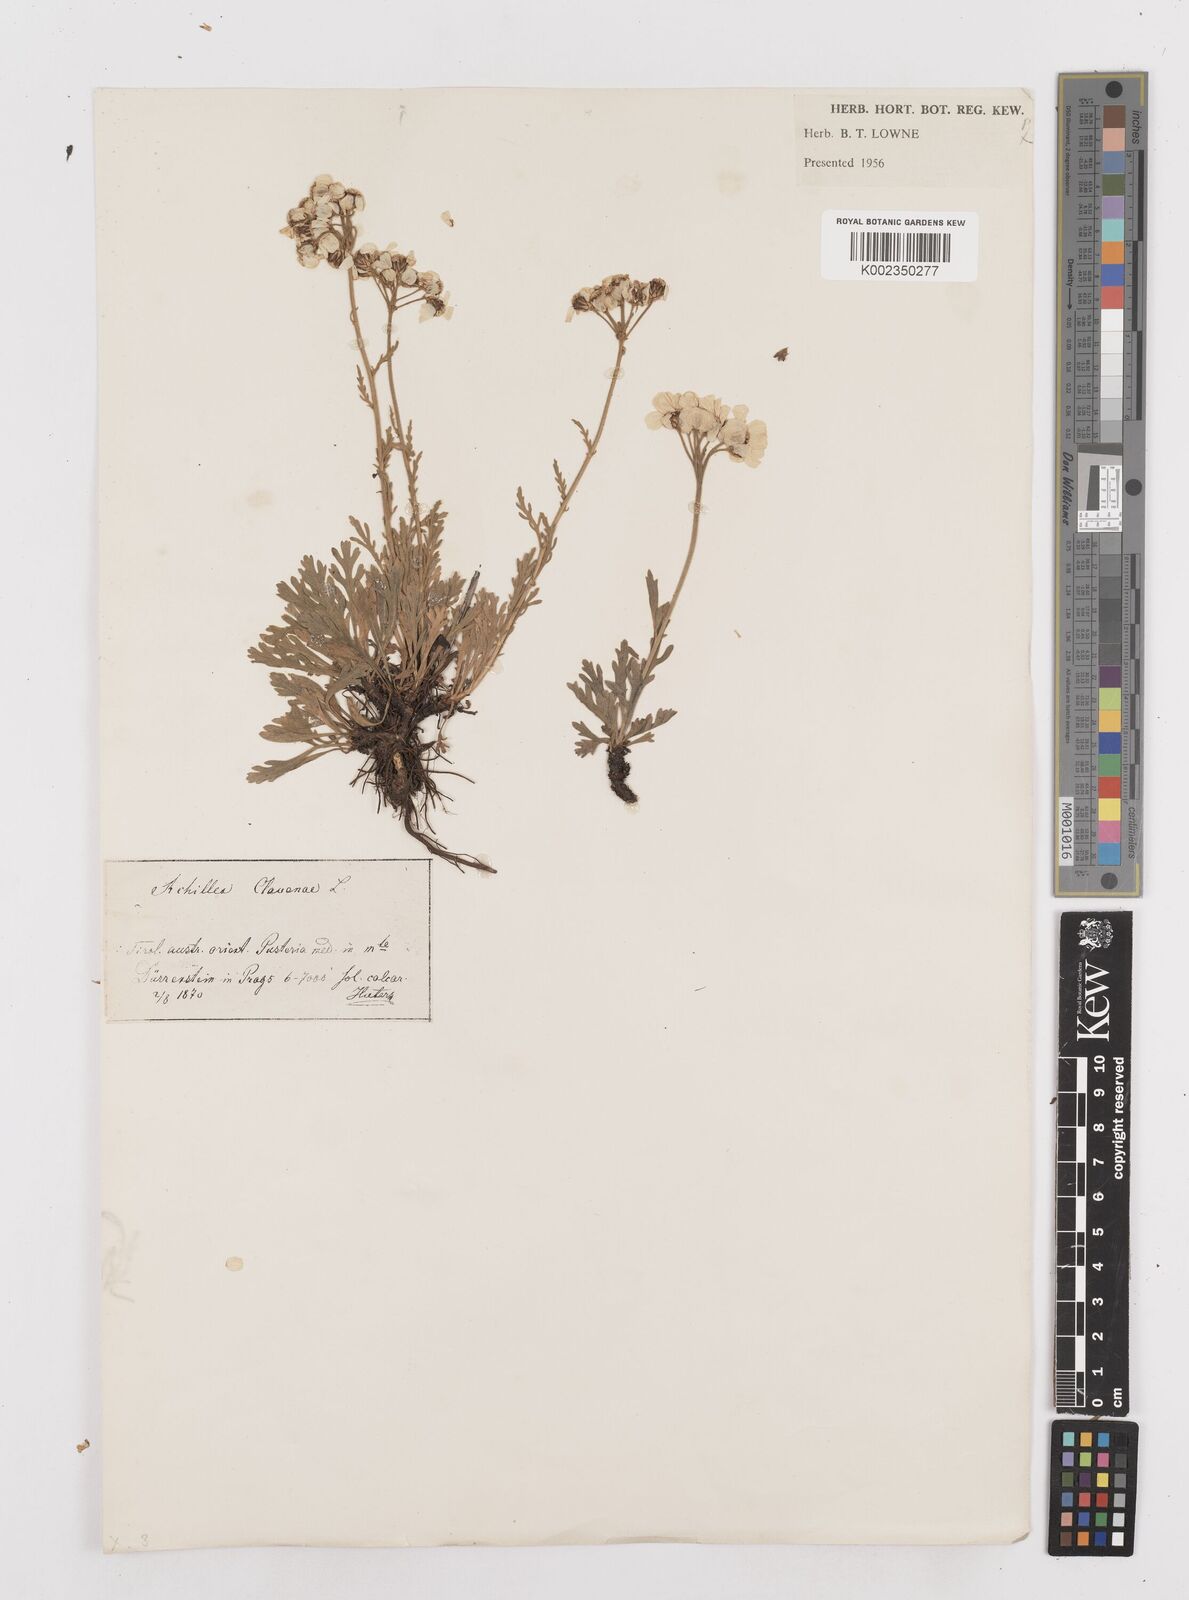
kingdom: Plantae
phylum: Tracheophyta
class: Magnoliopsida
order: Asterales
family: Asteraceae
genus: Achillea
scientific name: Achillea clavennae
